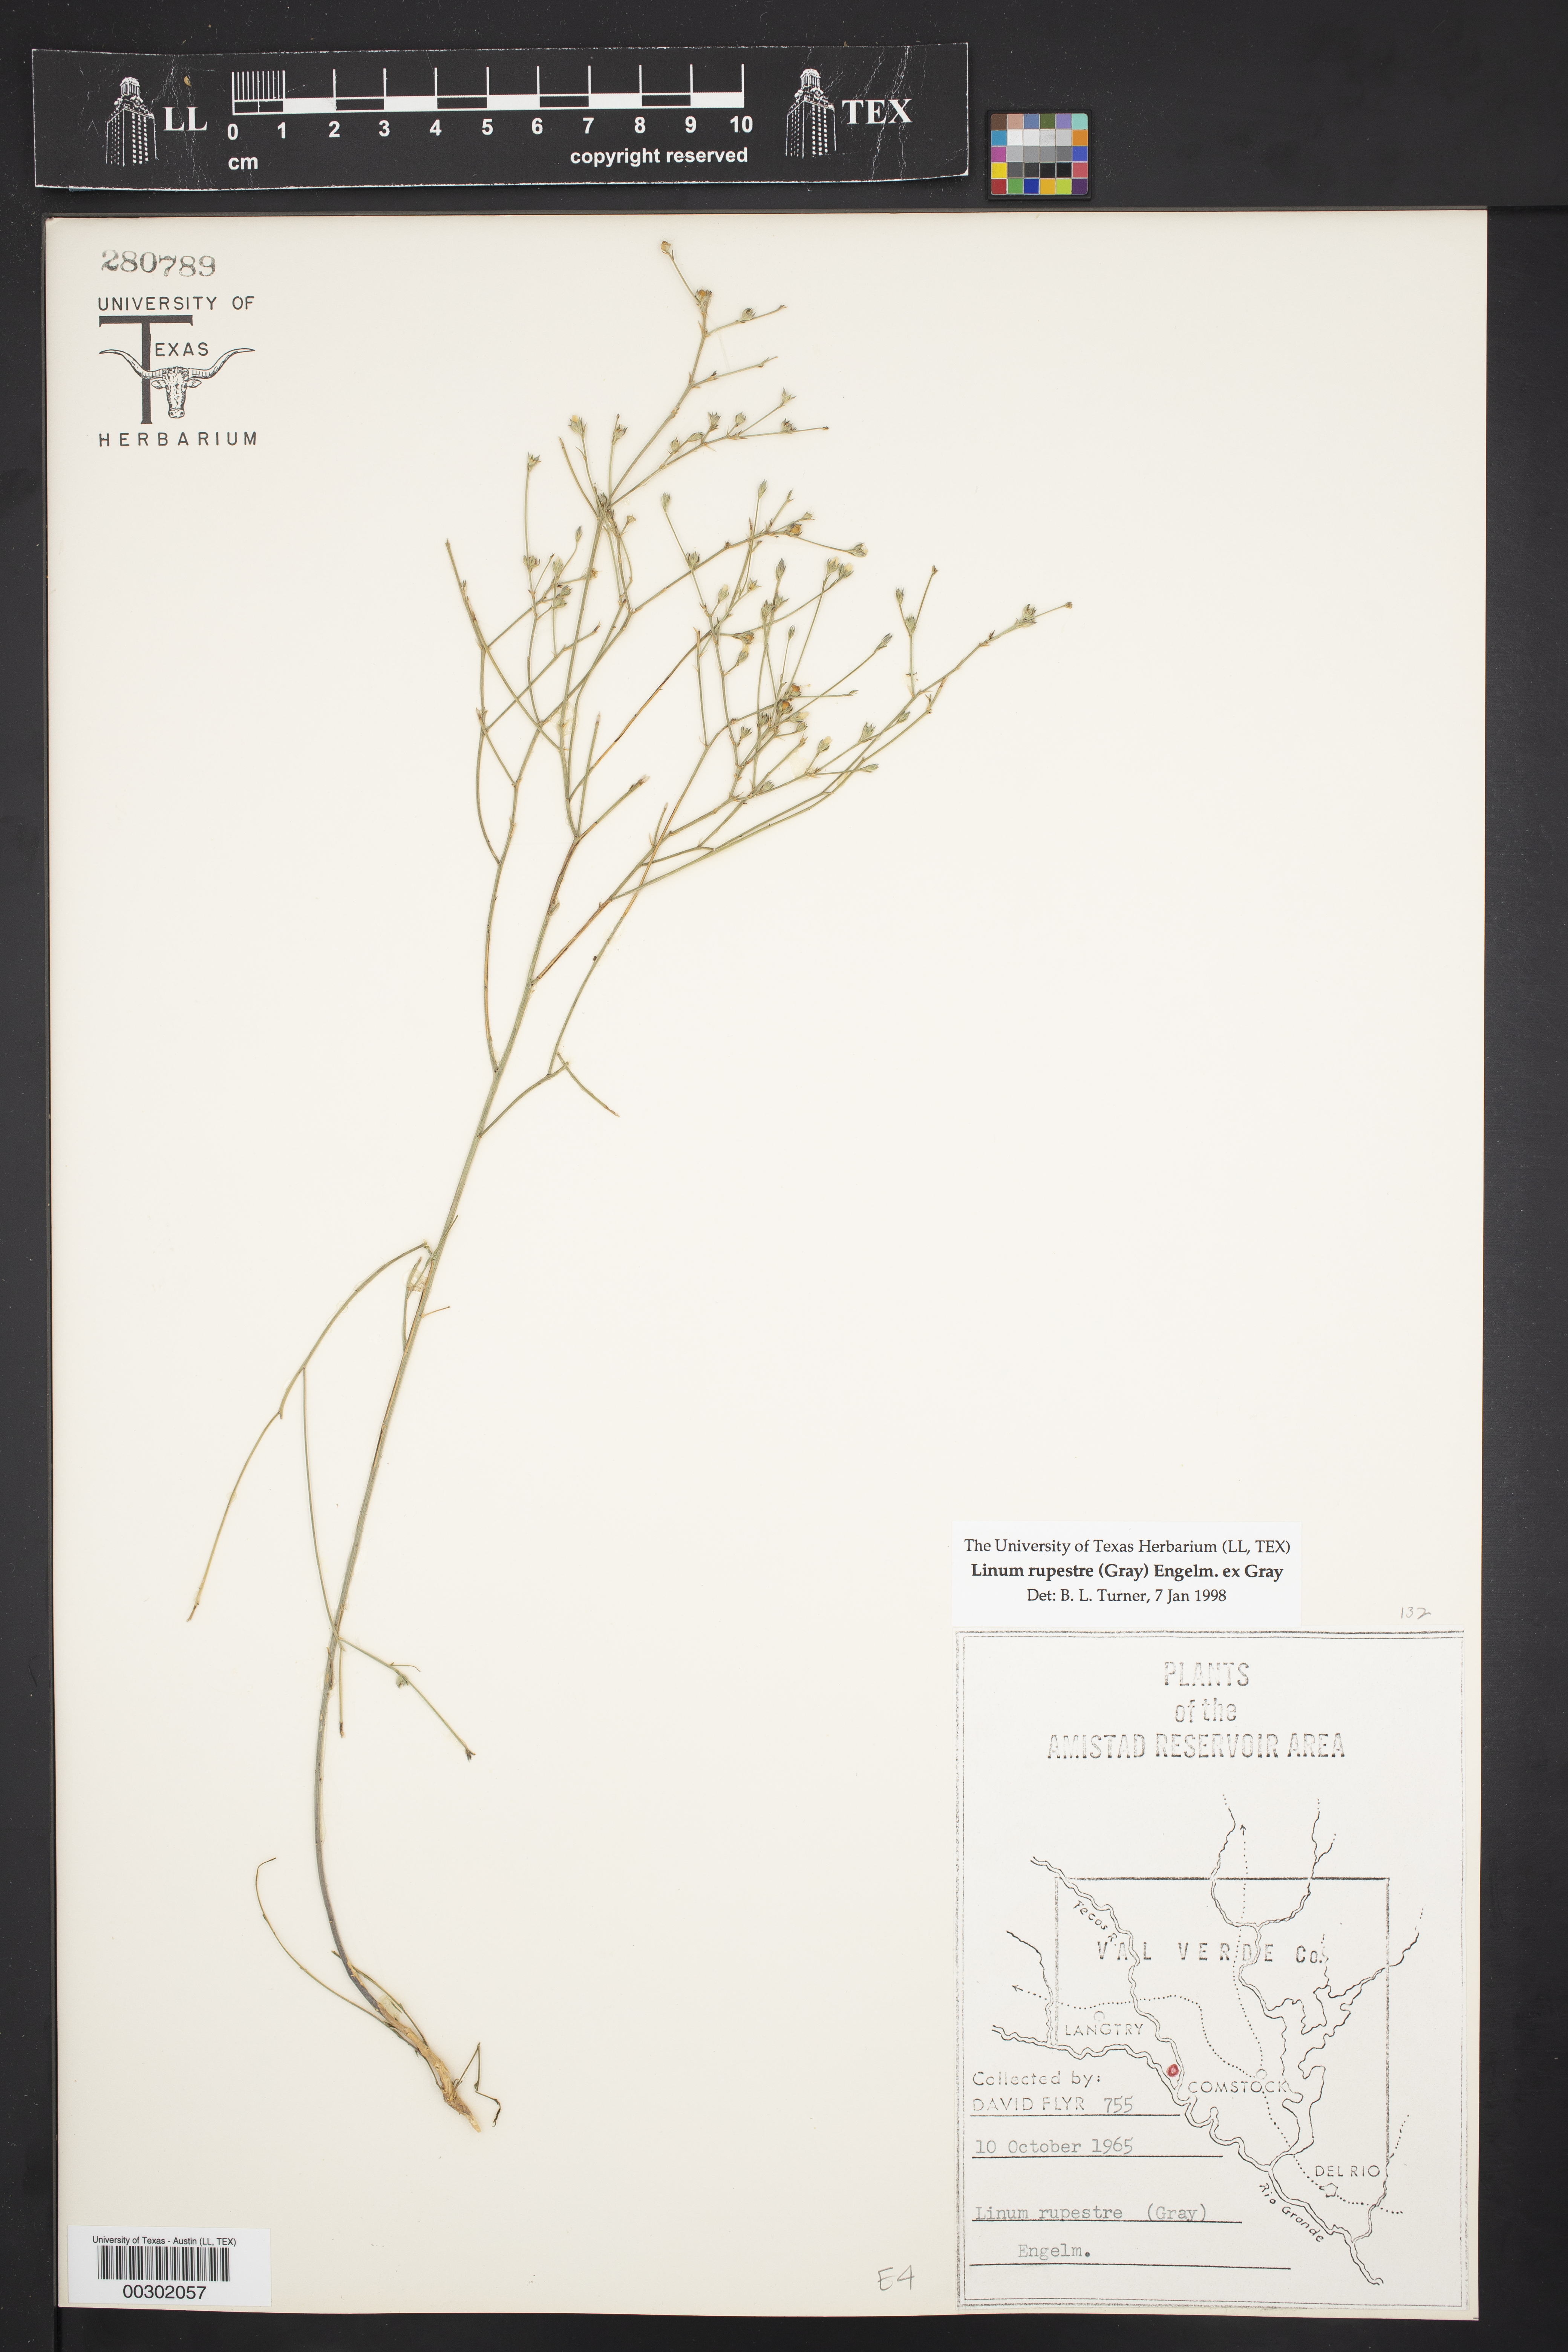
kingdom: Plantae
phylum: Tracheophyta
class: Magnoliopsida
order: Malpighiales
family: Linaceae
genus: Linum
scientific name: Linum rupestre
